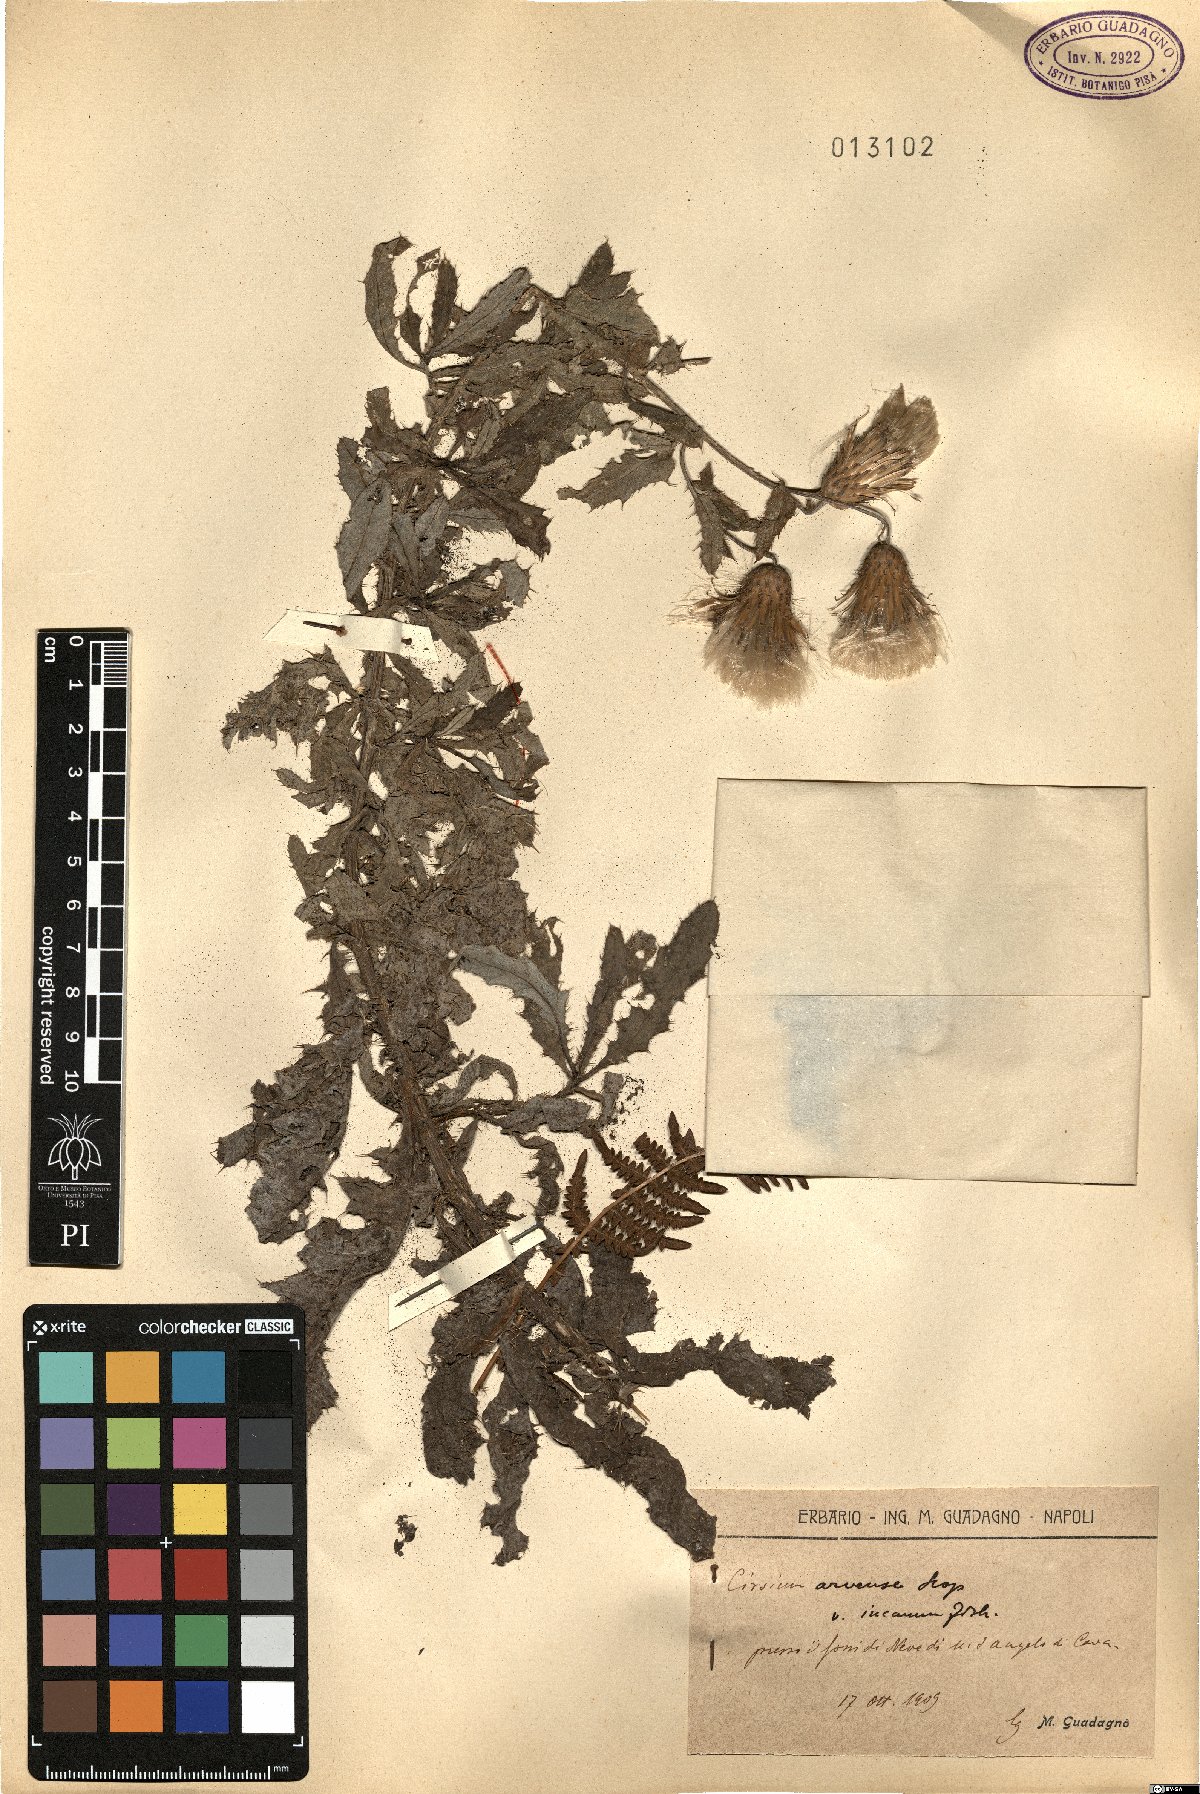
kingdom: Plantae
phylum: Tracheophyta
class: Magnoliopsida
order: Asterales
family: Asteraceae
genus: Cirsium
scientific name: Cirsium arvense
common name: Creeping thistle
